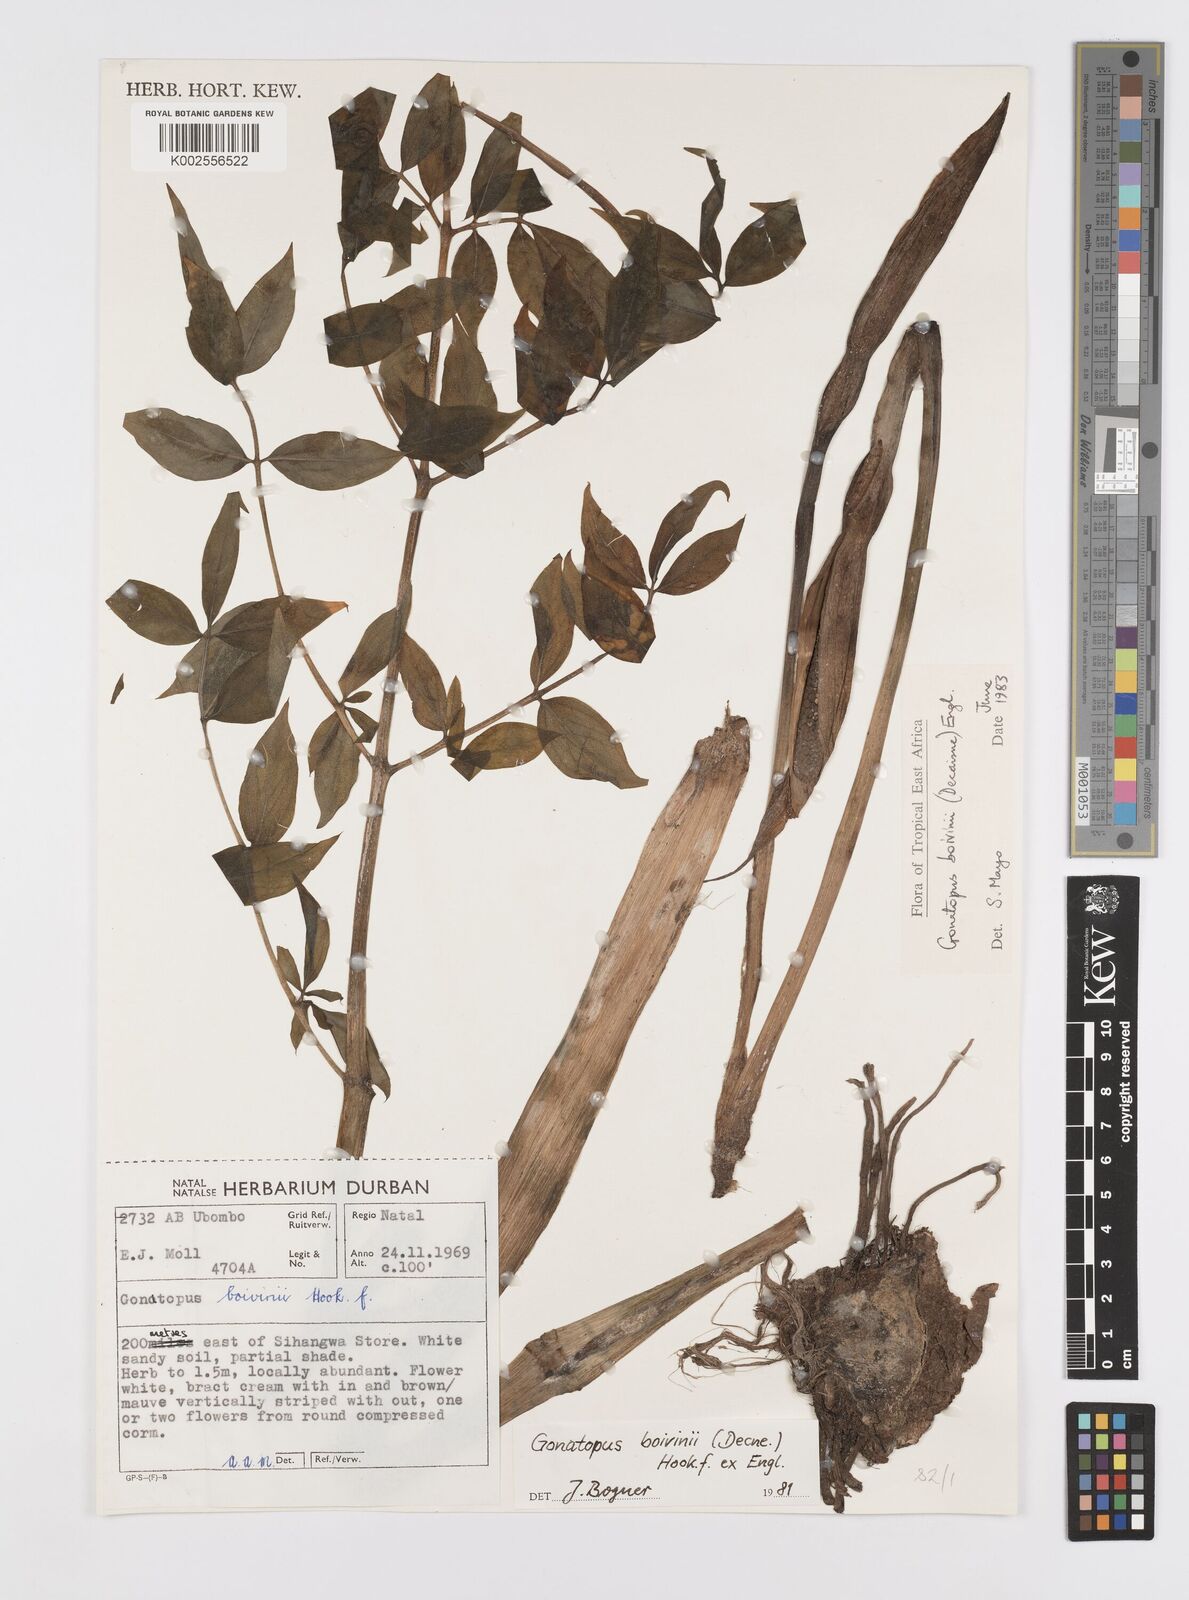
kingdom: Plantae
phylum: Tracheophyta
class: Liliopsida
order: Alismatales
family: Araceae
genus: Gonatopus
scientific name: Gonatopus boivinii
